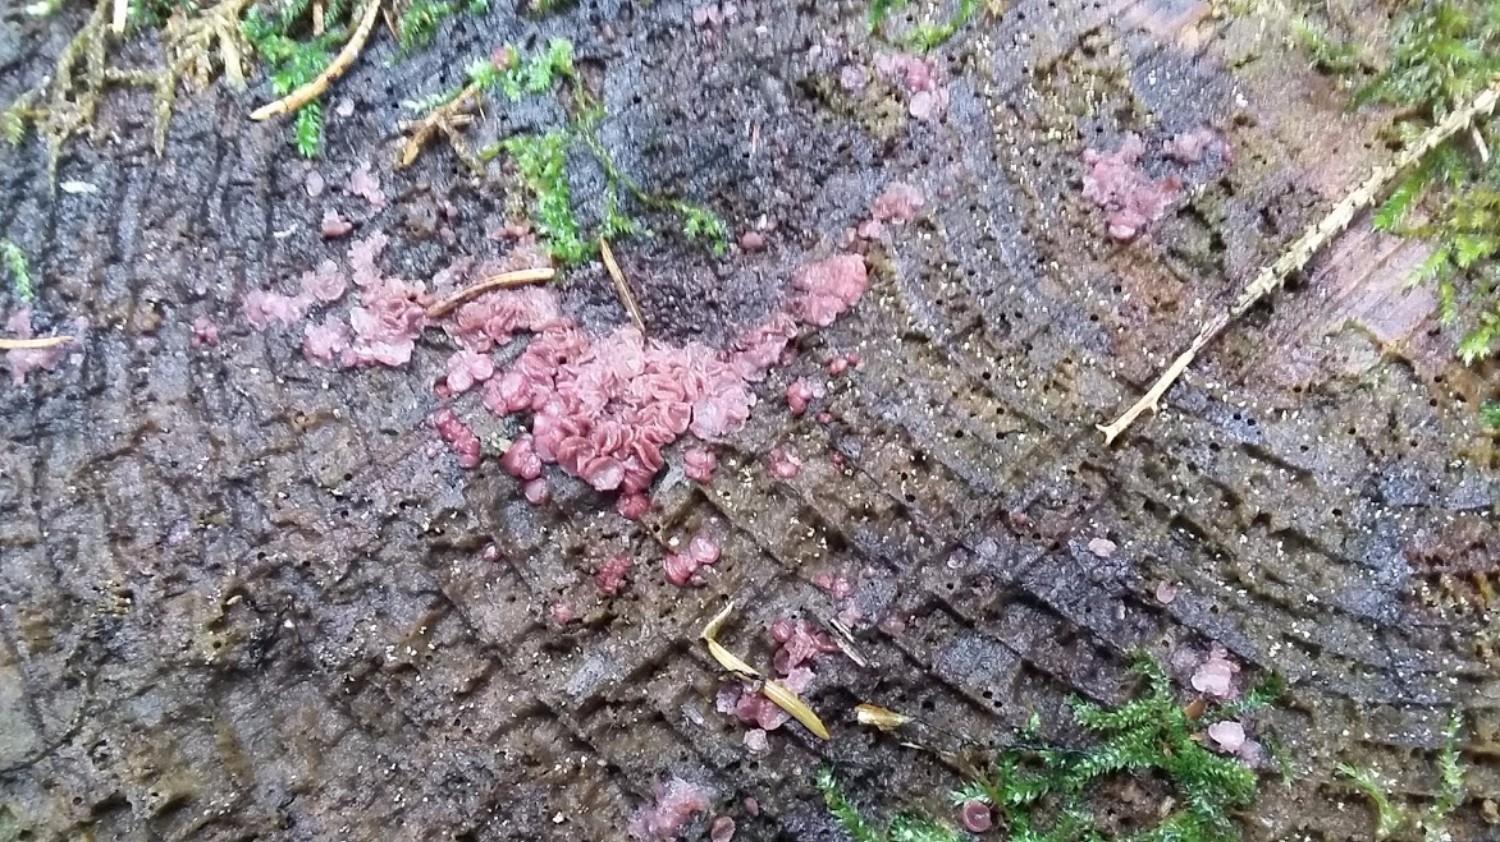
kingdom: Fungi
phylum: Ascomycota
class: Leotiomycetes
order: Helotiales
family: Gelatinodiscaceae
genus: Ascocoryne
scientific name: Ascocoryne
